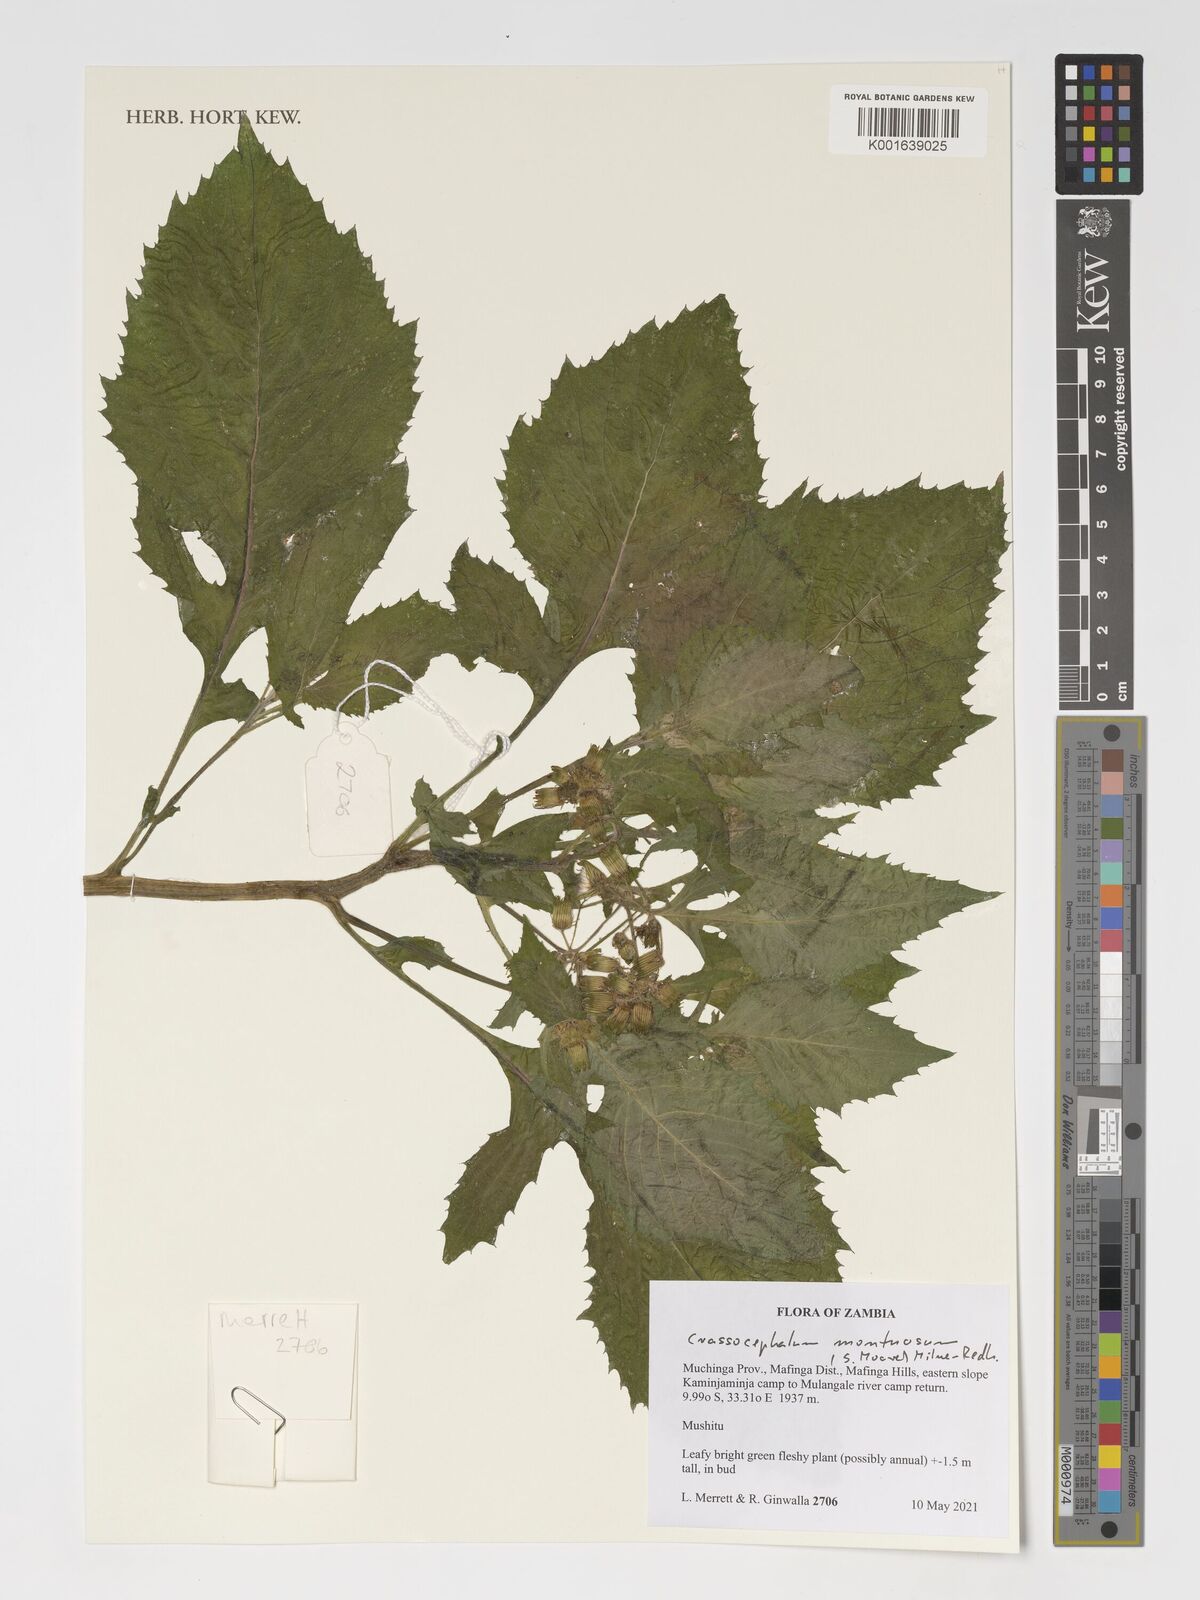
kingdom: Plantae
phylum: Tracheophyta
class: Magnoliopsida
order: Asterales
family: Asteraceae
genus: Crassocephalum
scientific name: Crassocephalum montuosum
